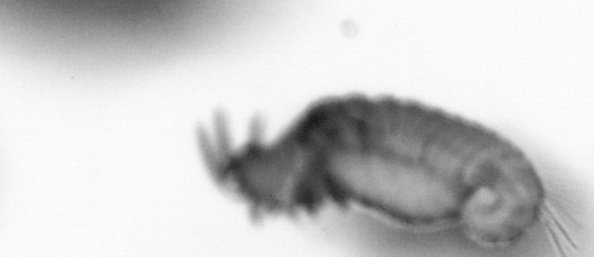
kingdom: Animalia
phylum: Annelida
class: Polychaeta
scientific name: Polychaeta
